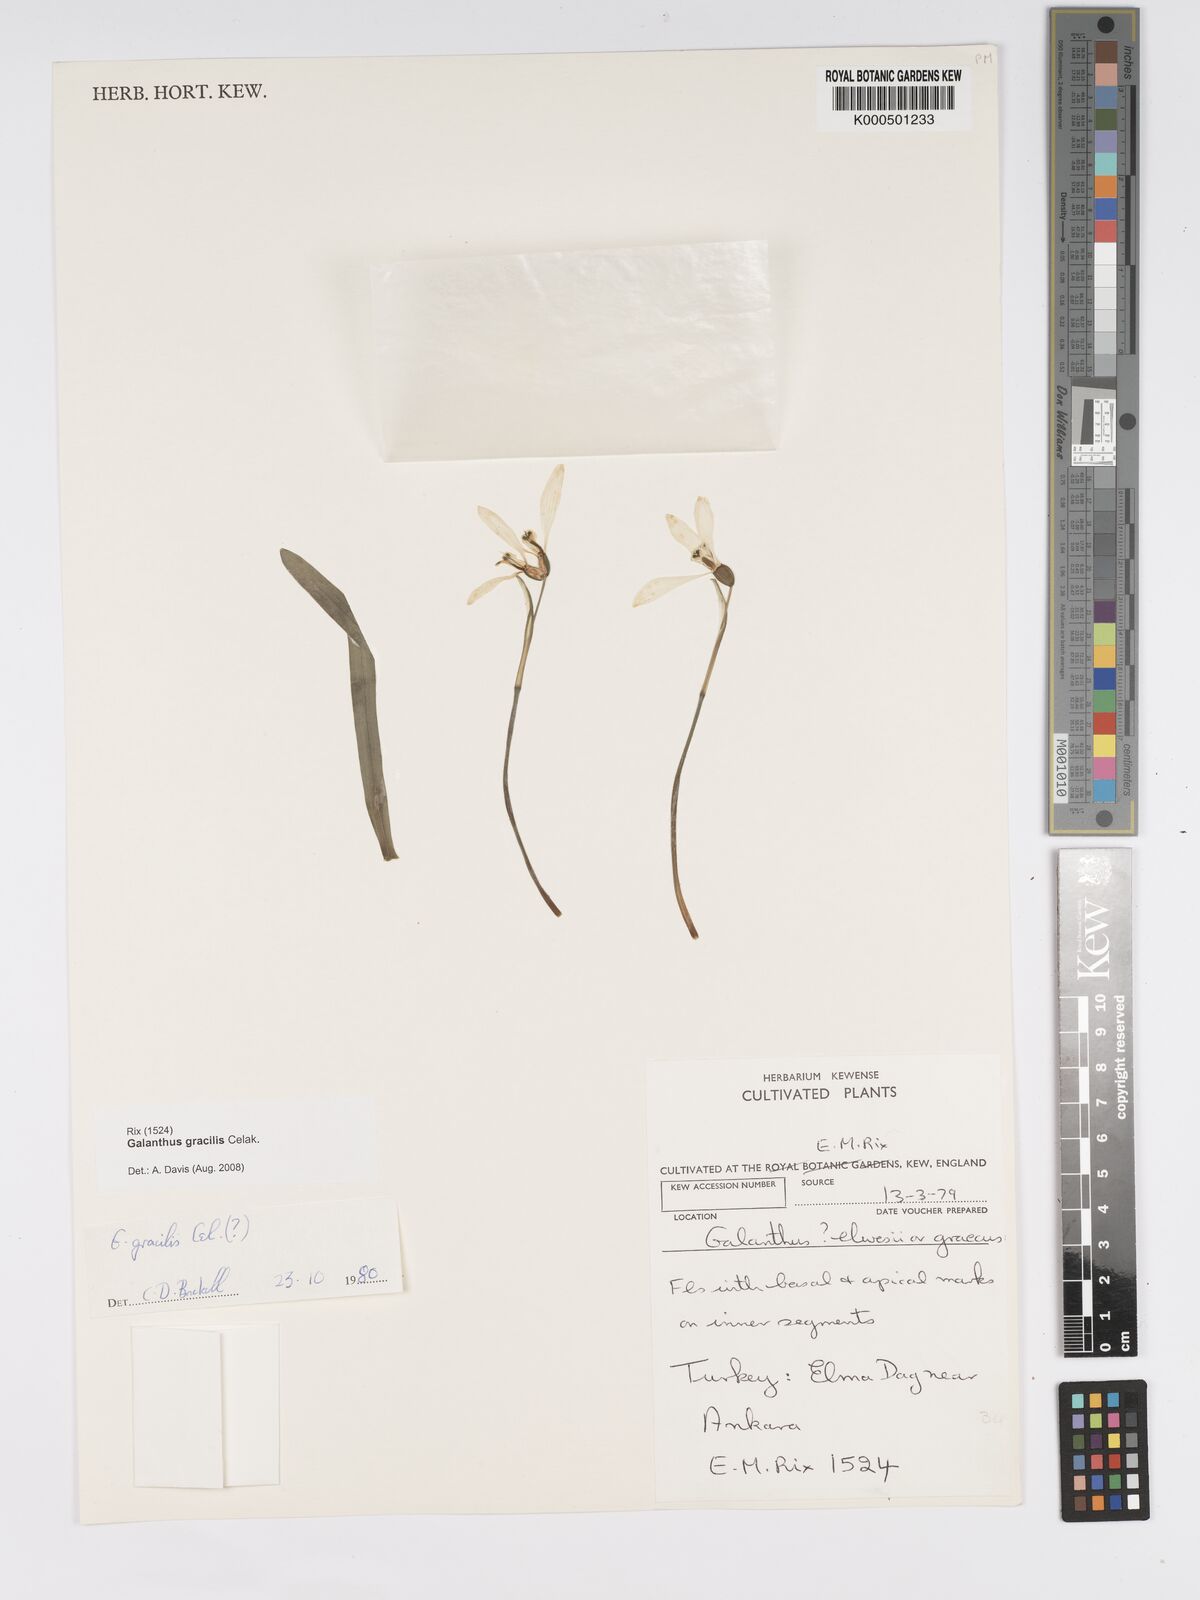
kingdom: Plantae
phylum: Tracheophyta
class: Liliopsida
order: Asparagales
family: Amaryllidaceae
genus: Galanthus
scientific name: Galanthus gracilis
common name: Snowdrop
